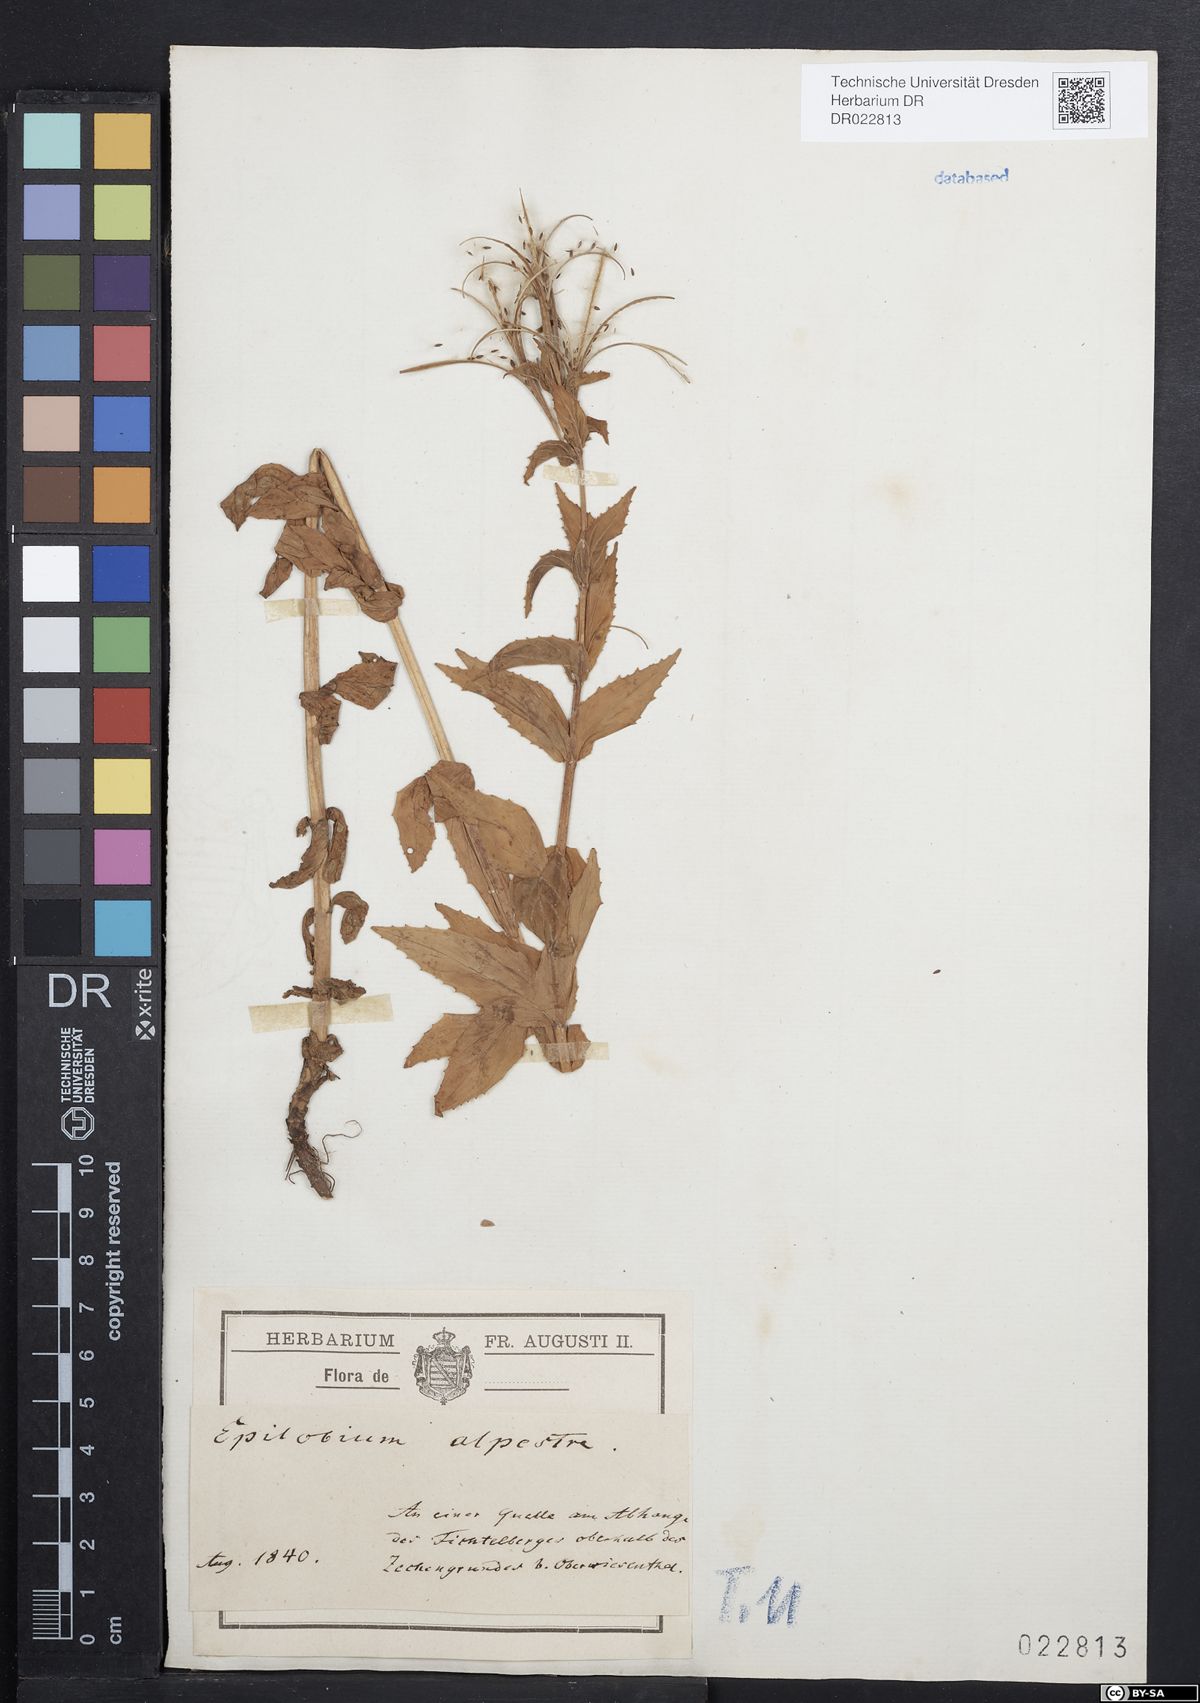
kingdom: Plantae
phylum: Tracheophyta
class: Magnoliopsida
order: Myrtales
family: Onagraceae
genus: Epilobium
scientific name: Epilobium alpestre
